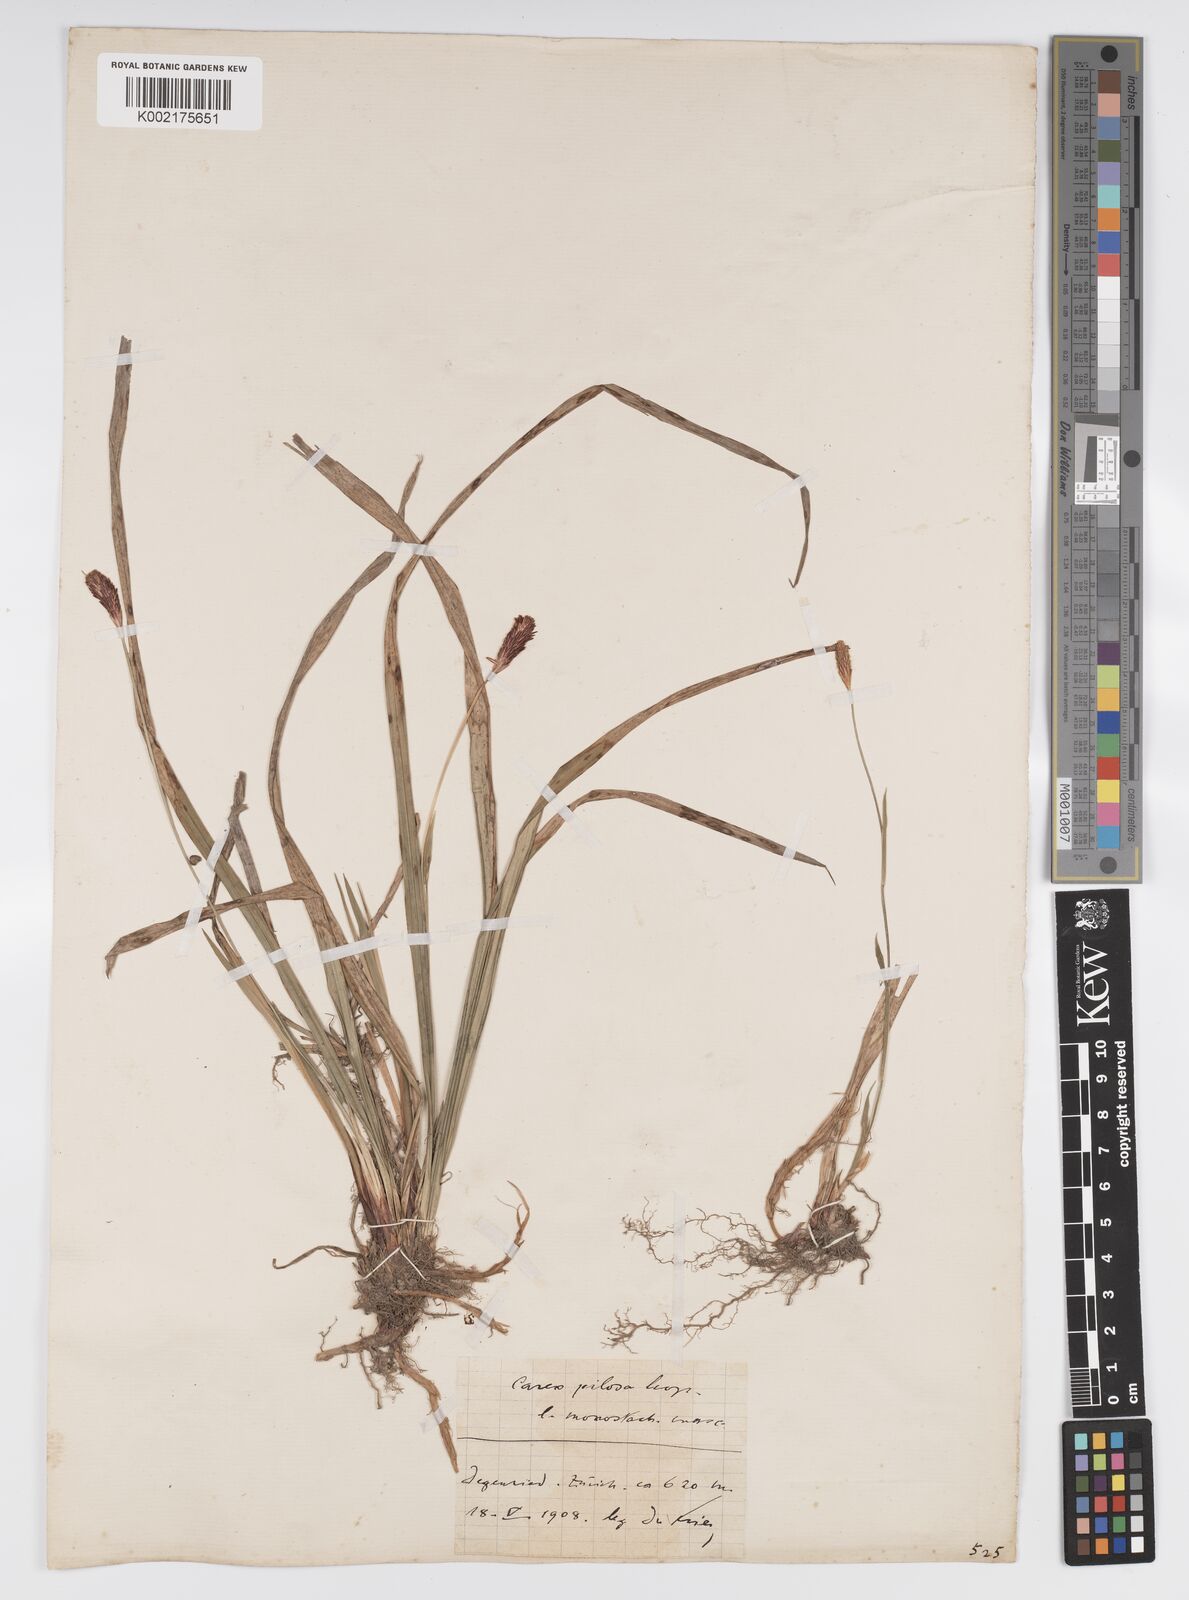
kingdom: Plantae
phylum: Tracheophyta
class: Liliopsida
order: Poales
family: Cyperaceae
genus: Carex
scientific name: Carex pilosa
